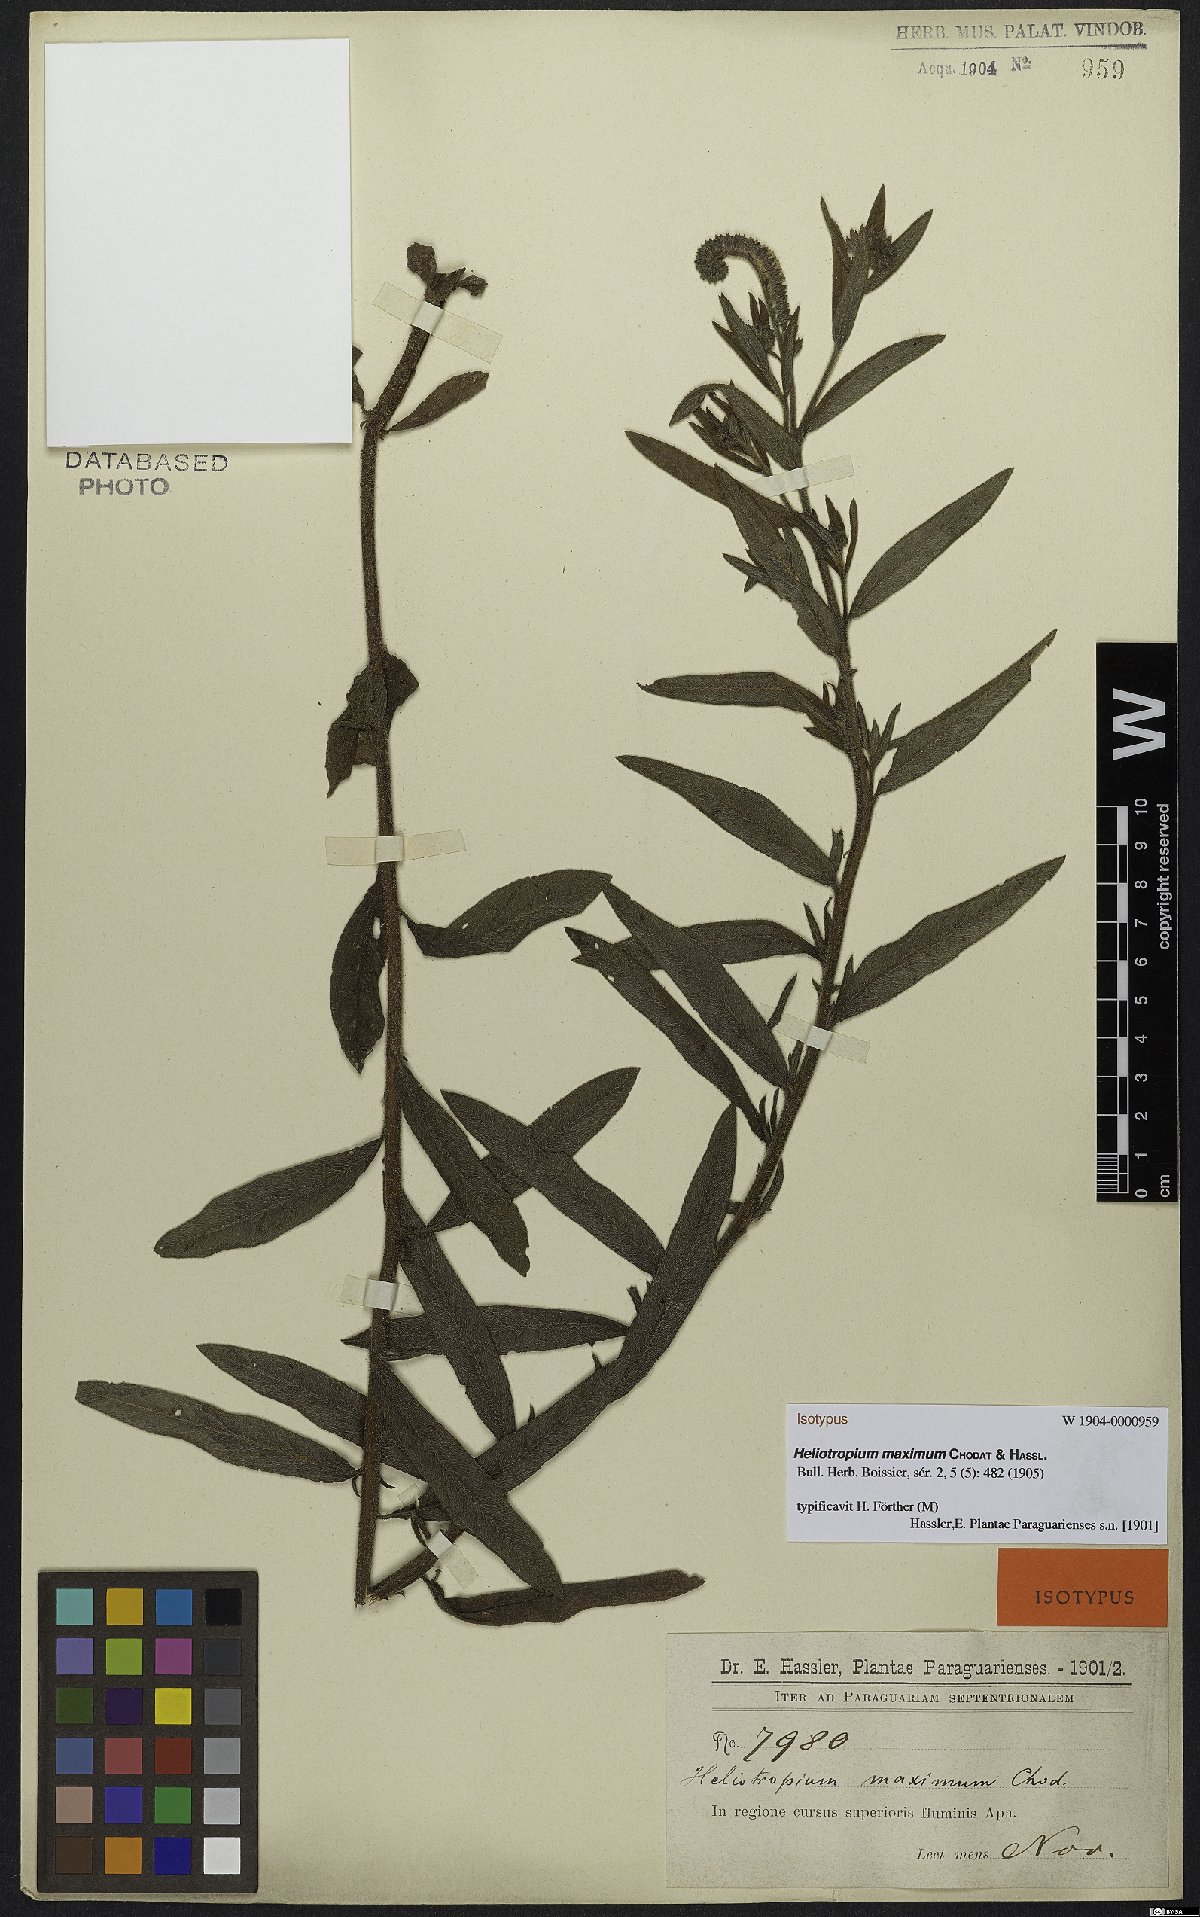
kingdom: Plantae
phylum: Tracheophyta
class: Magnoliopsida
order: Boraginales
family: Heliotropiaceae
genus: Euploca
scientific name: Euploca maxima
